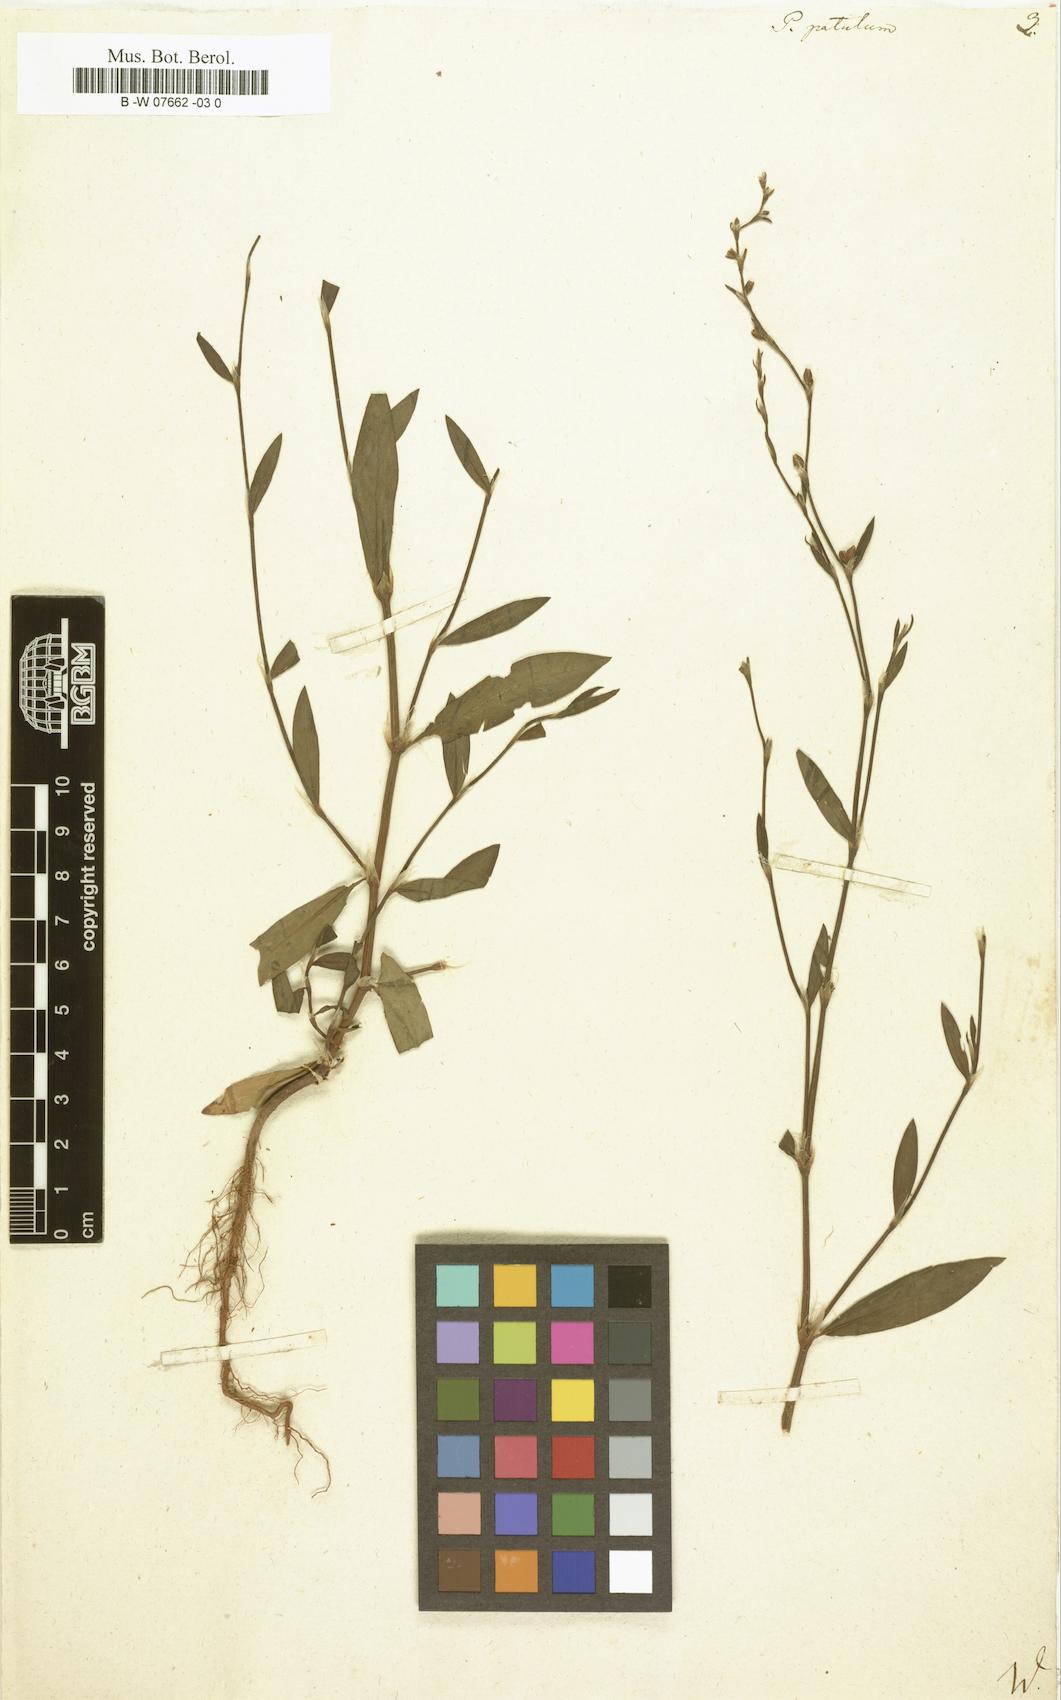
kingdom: Plantae
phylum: Tracheophyta
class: Magnoliopsida
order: Caryophyllales
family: Polygonaceae
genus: Polygonum
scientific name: Polygonum patulum
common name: Red-knotgrass
